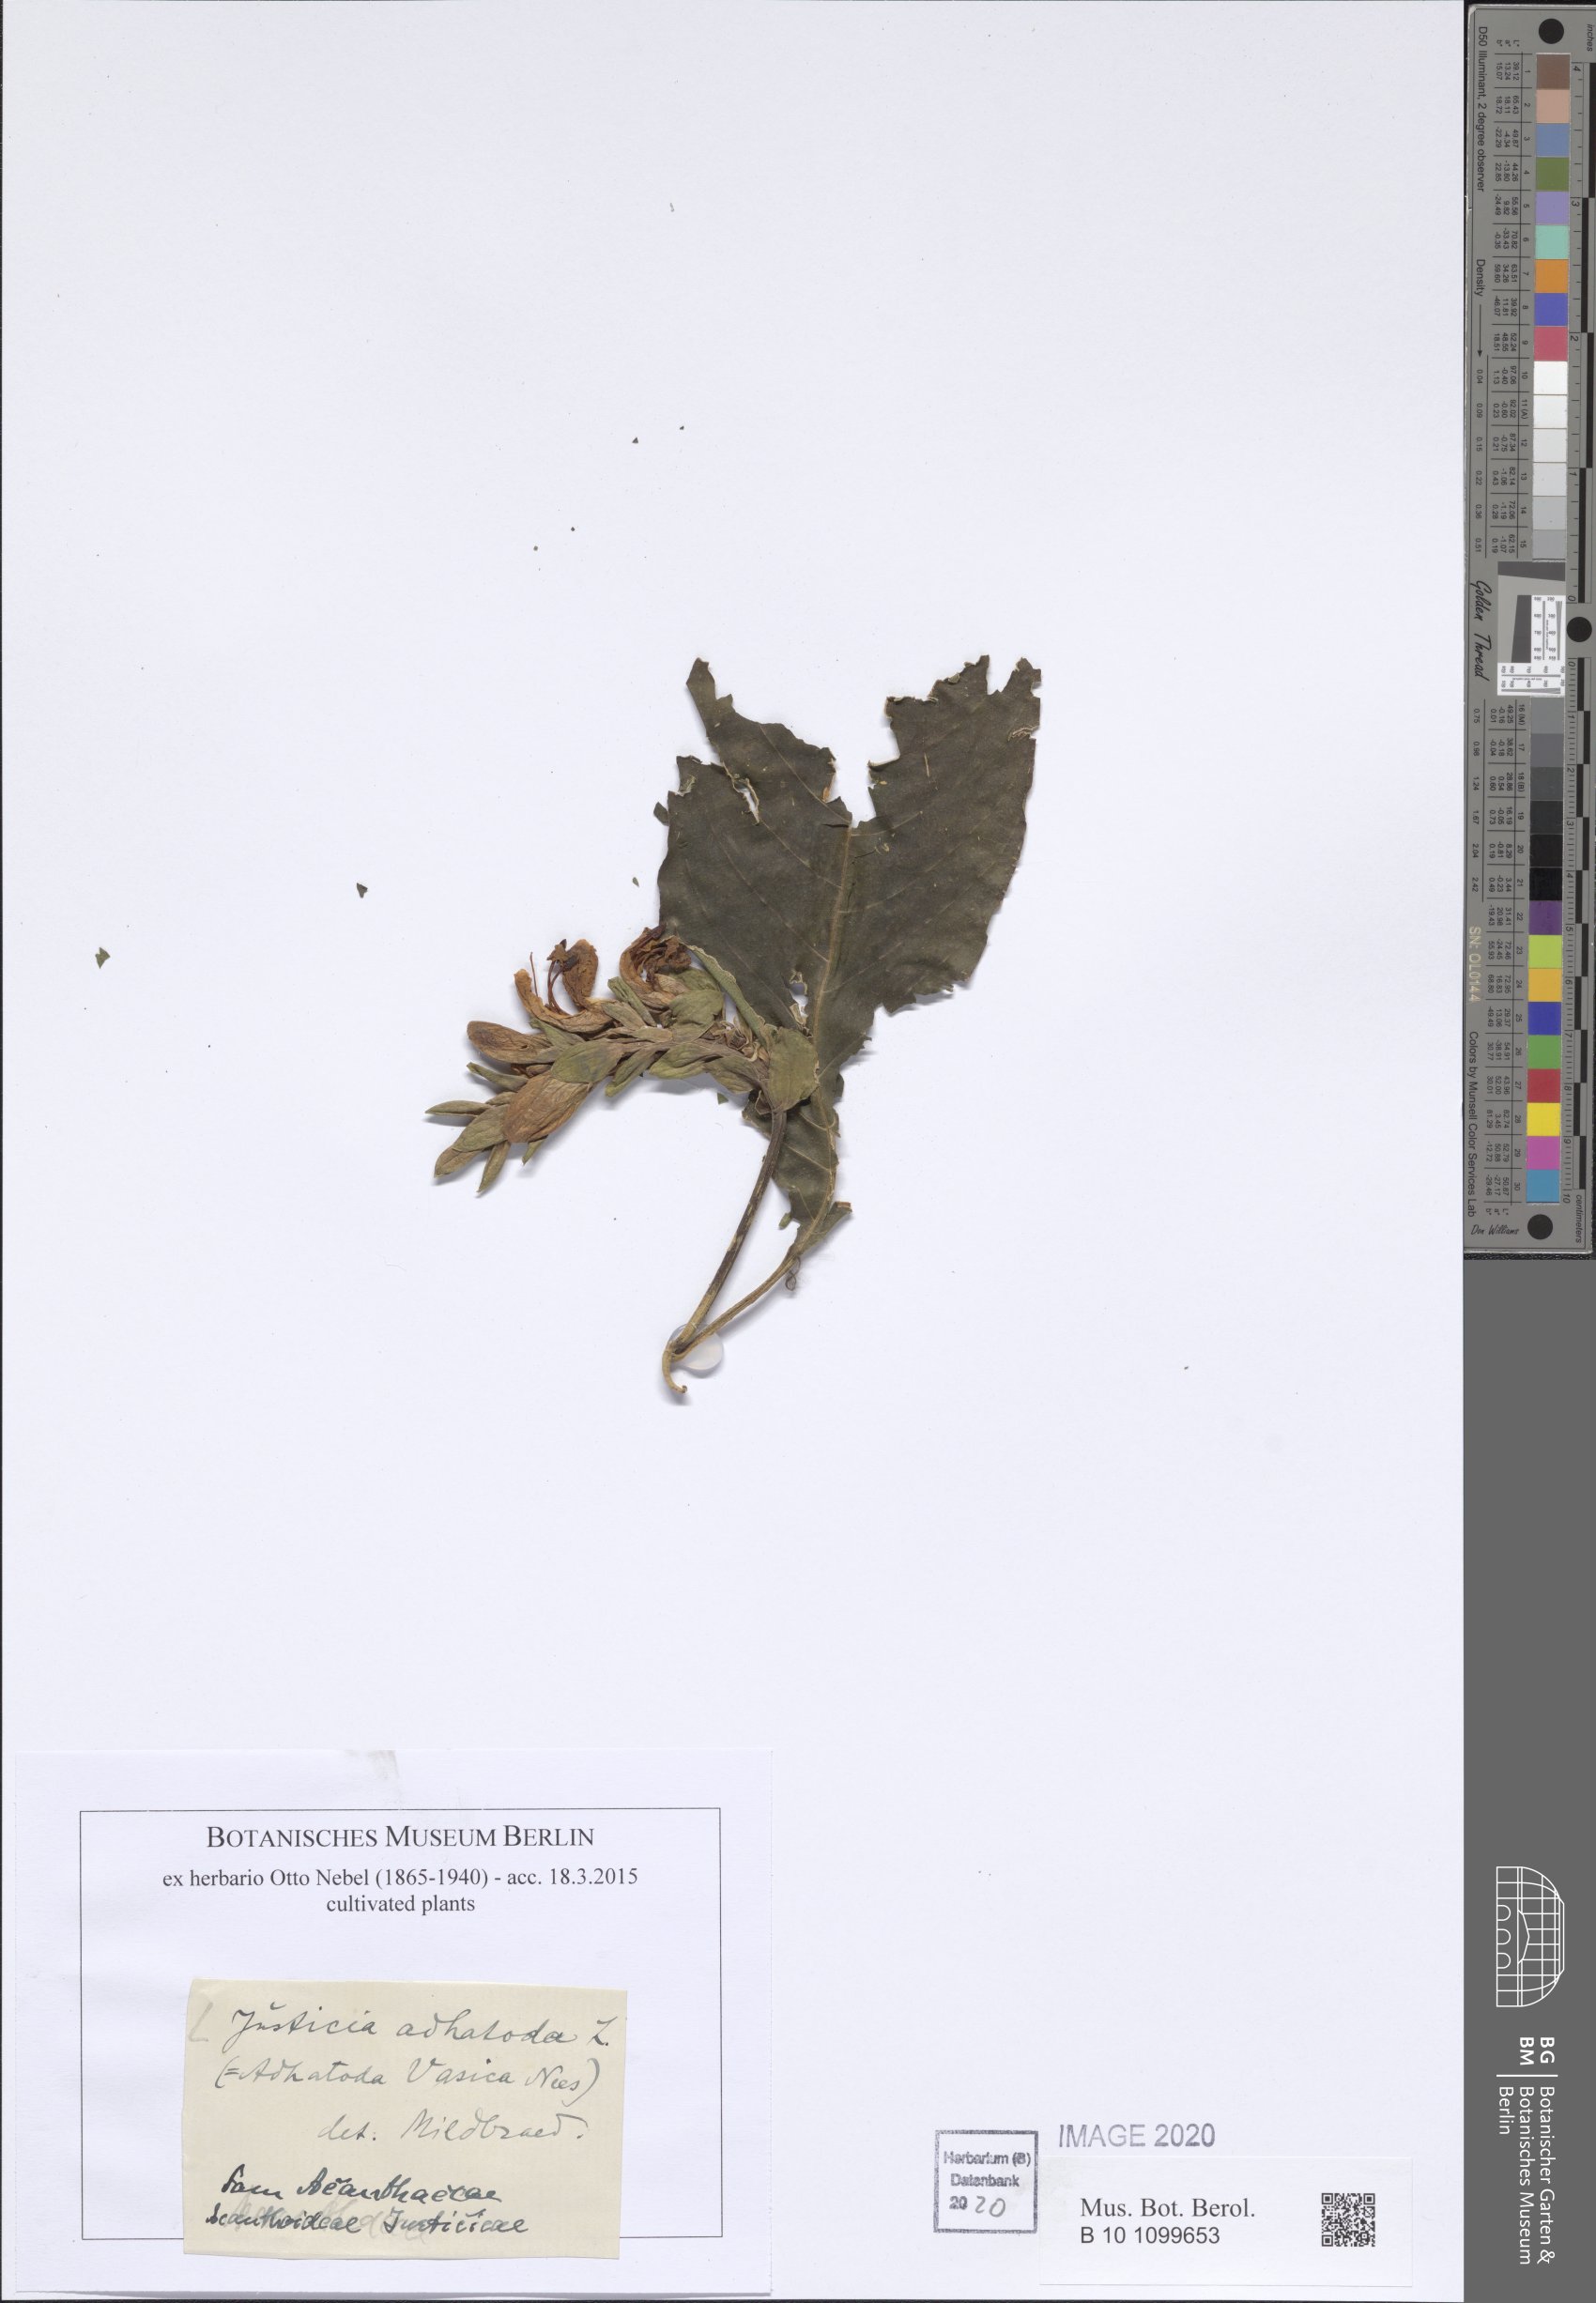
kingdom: Plantae
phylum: Tracheophyta
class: Magnoliopsida
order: Lamiales
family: Acanthaceae
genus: Ecbolium
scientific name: Ecbolium ligustrinum
